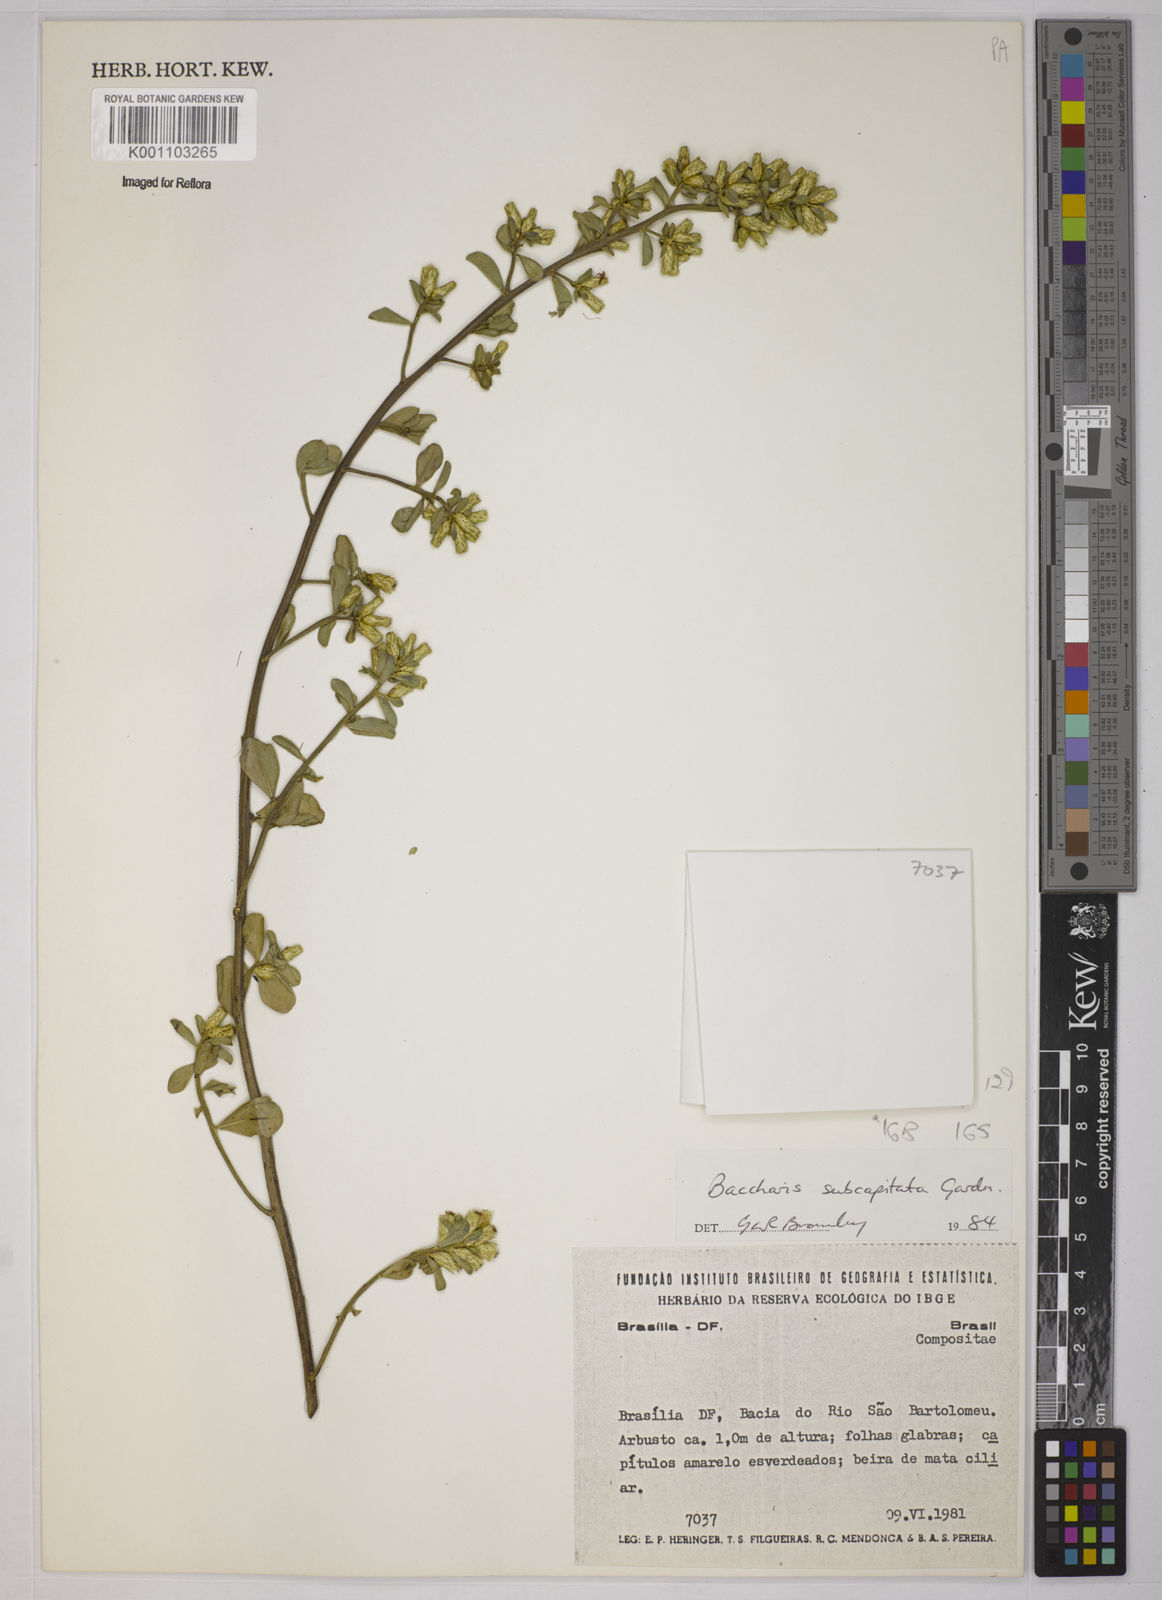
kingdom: Plantae
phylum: Tracheophyta
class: Magnoliopsida
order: Asterales
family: Asteraceae
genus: Baccharis
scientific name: Baccharis tridentata
